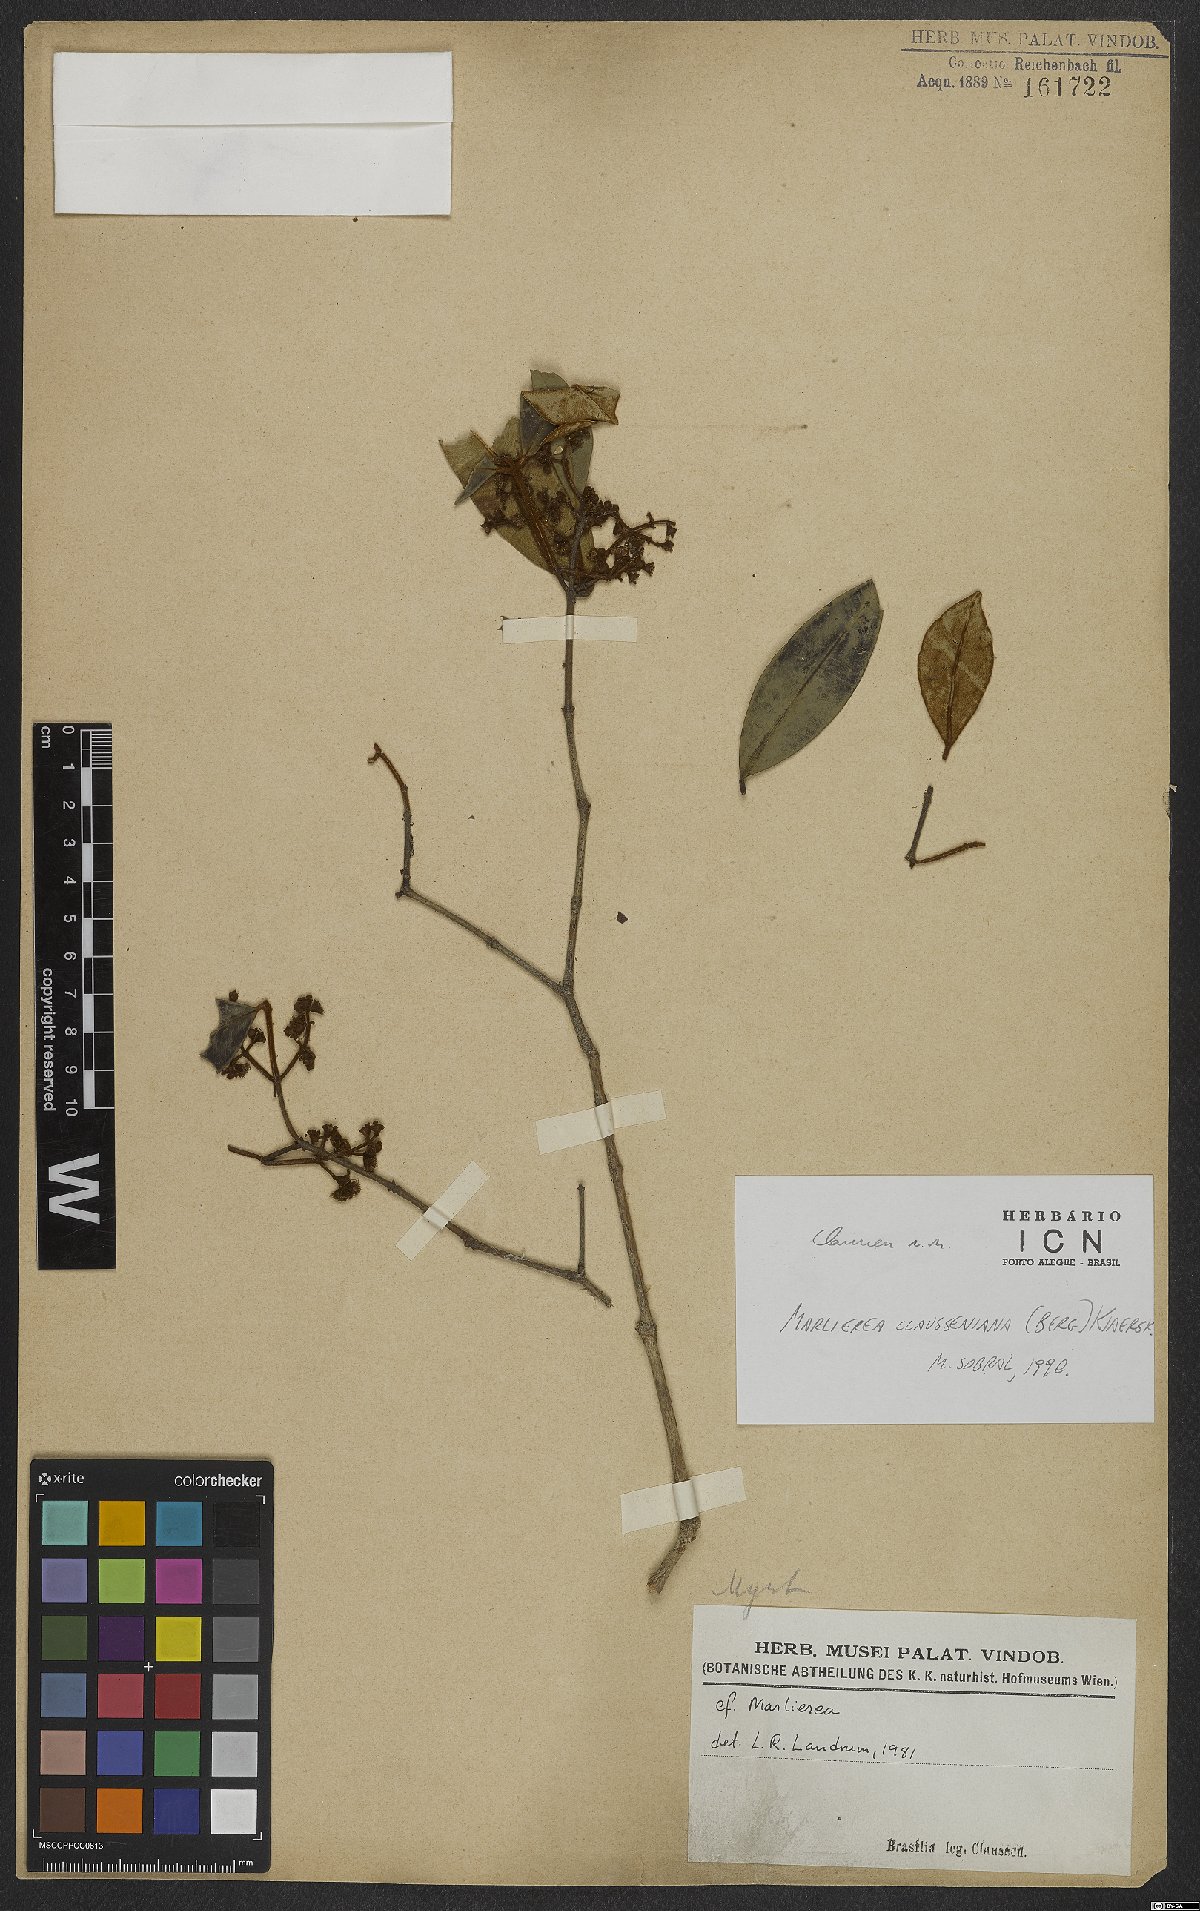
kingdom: Plantae
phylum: Tracheophyta
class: Magnoliopsida
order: Myrtales
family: Myrtaceae
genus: Marlierea
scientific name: Marlierea clausseniana
